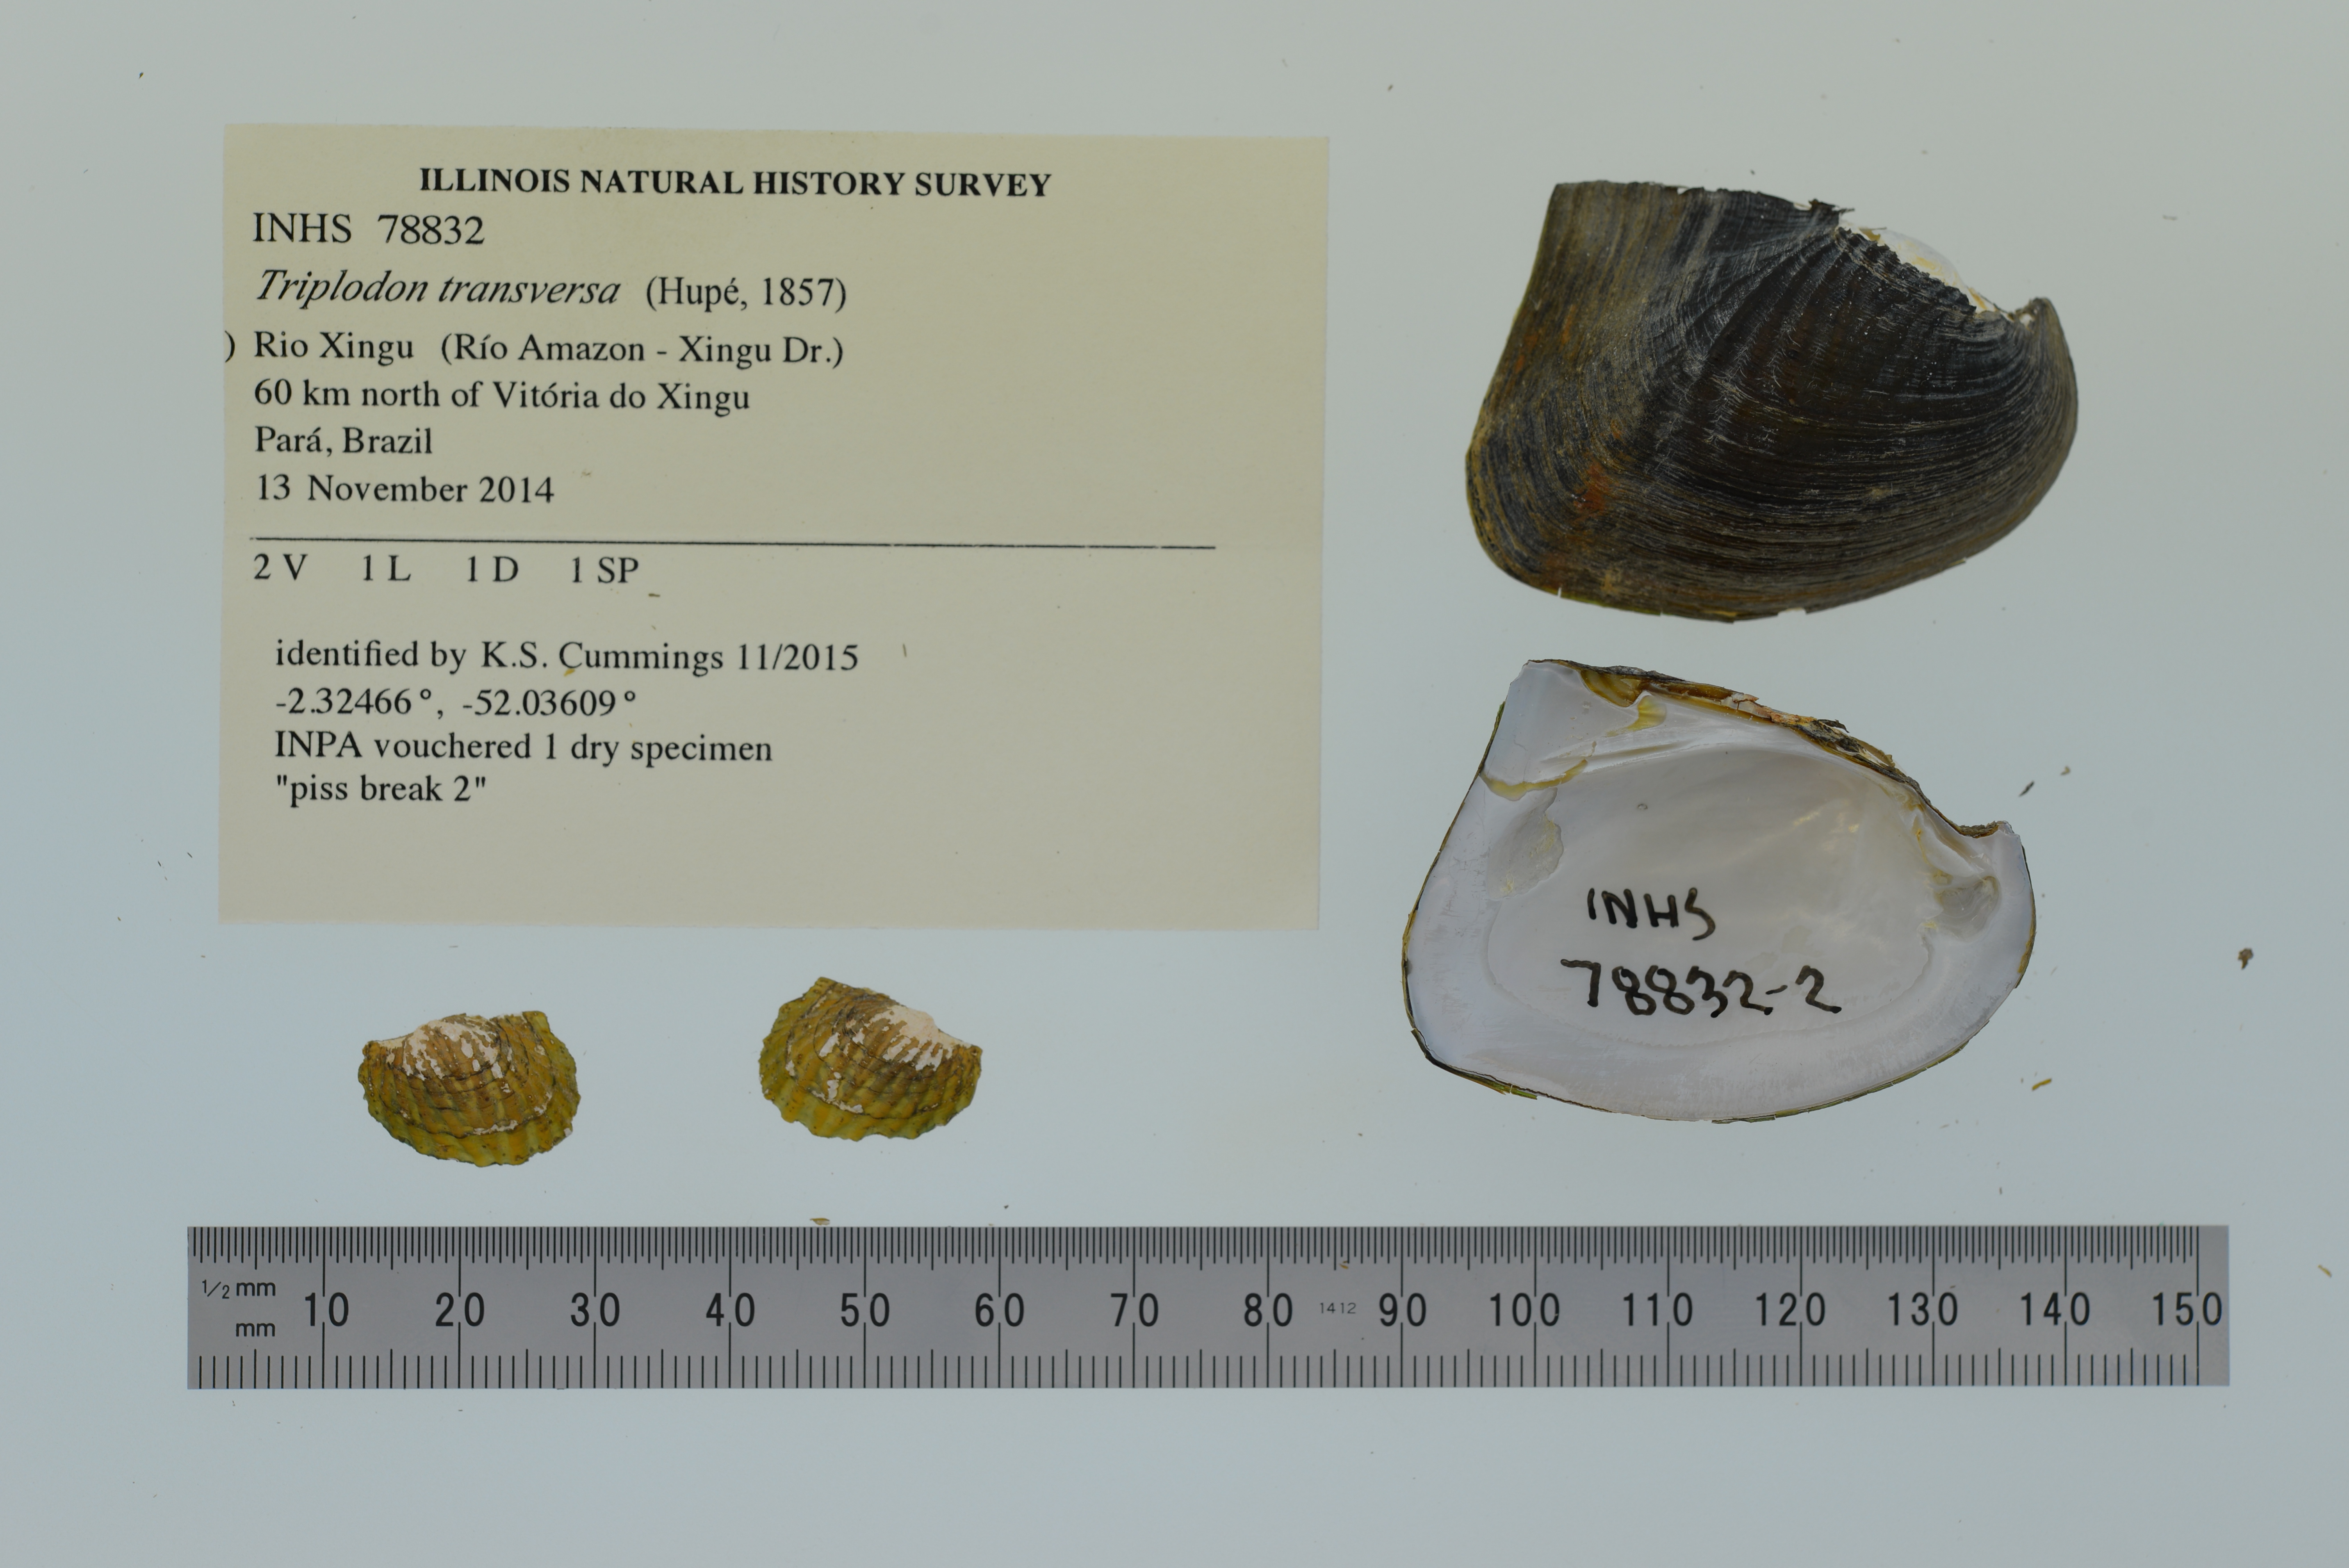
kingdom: Animalia
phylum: Mollusca
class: Bivalvia
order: Unionida
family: Hyriidae
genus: Triplodon
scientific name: Triplodon
